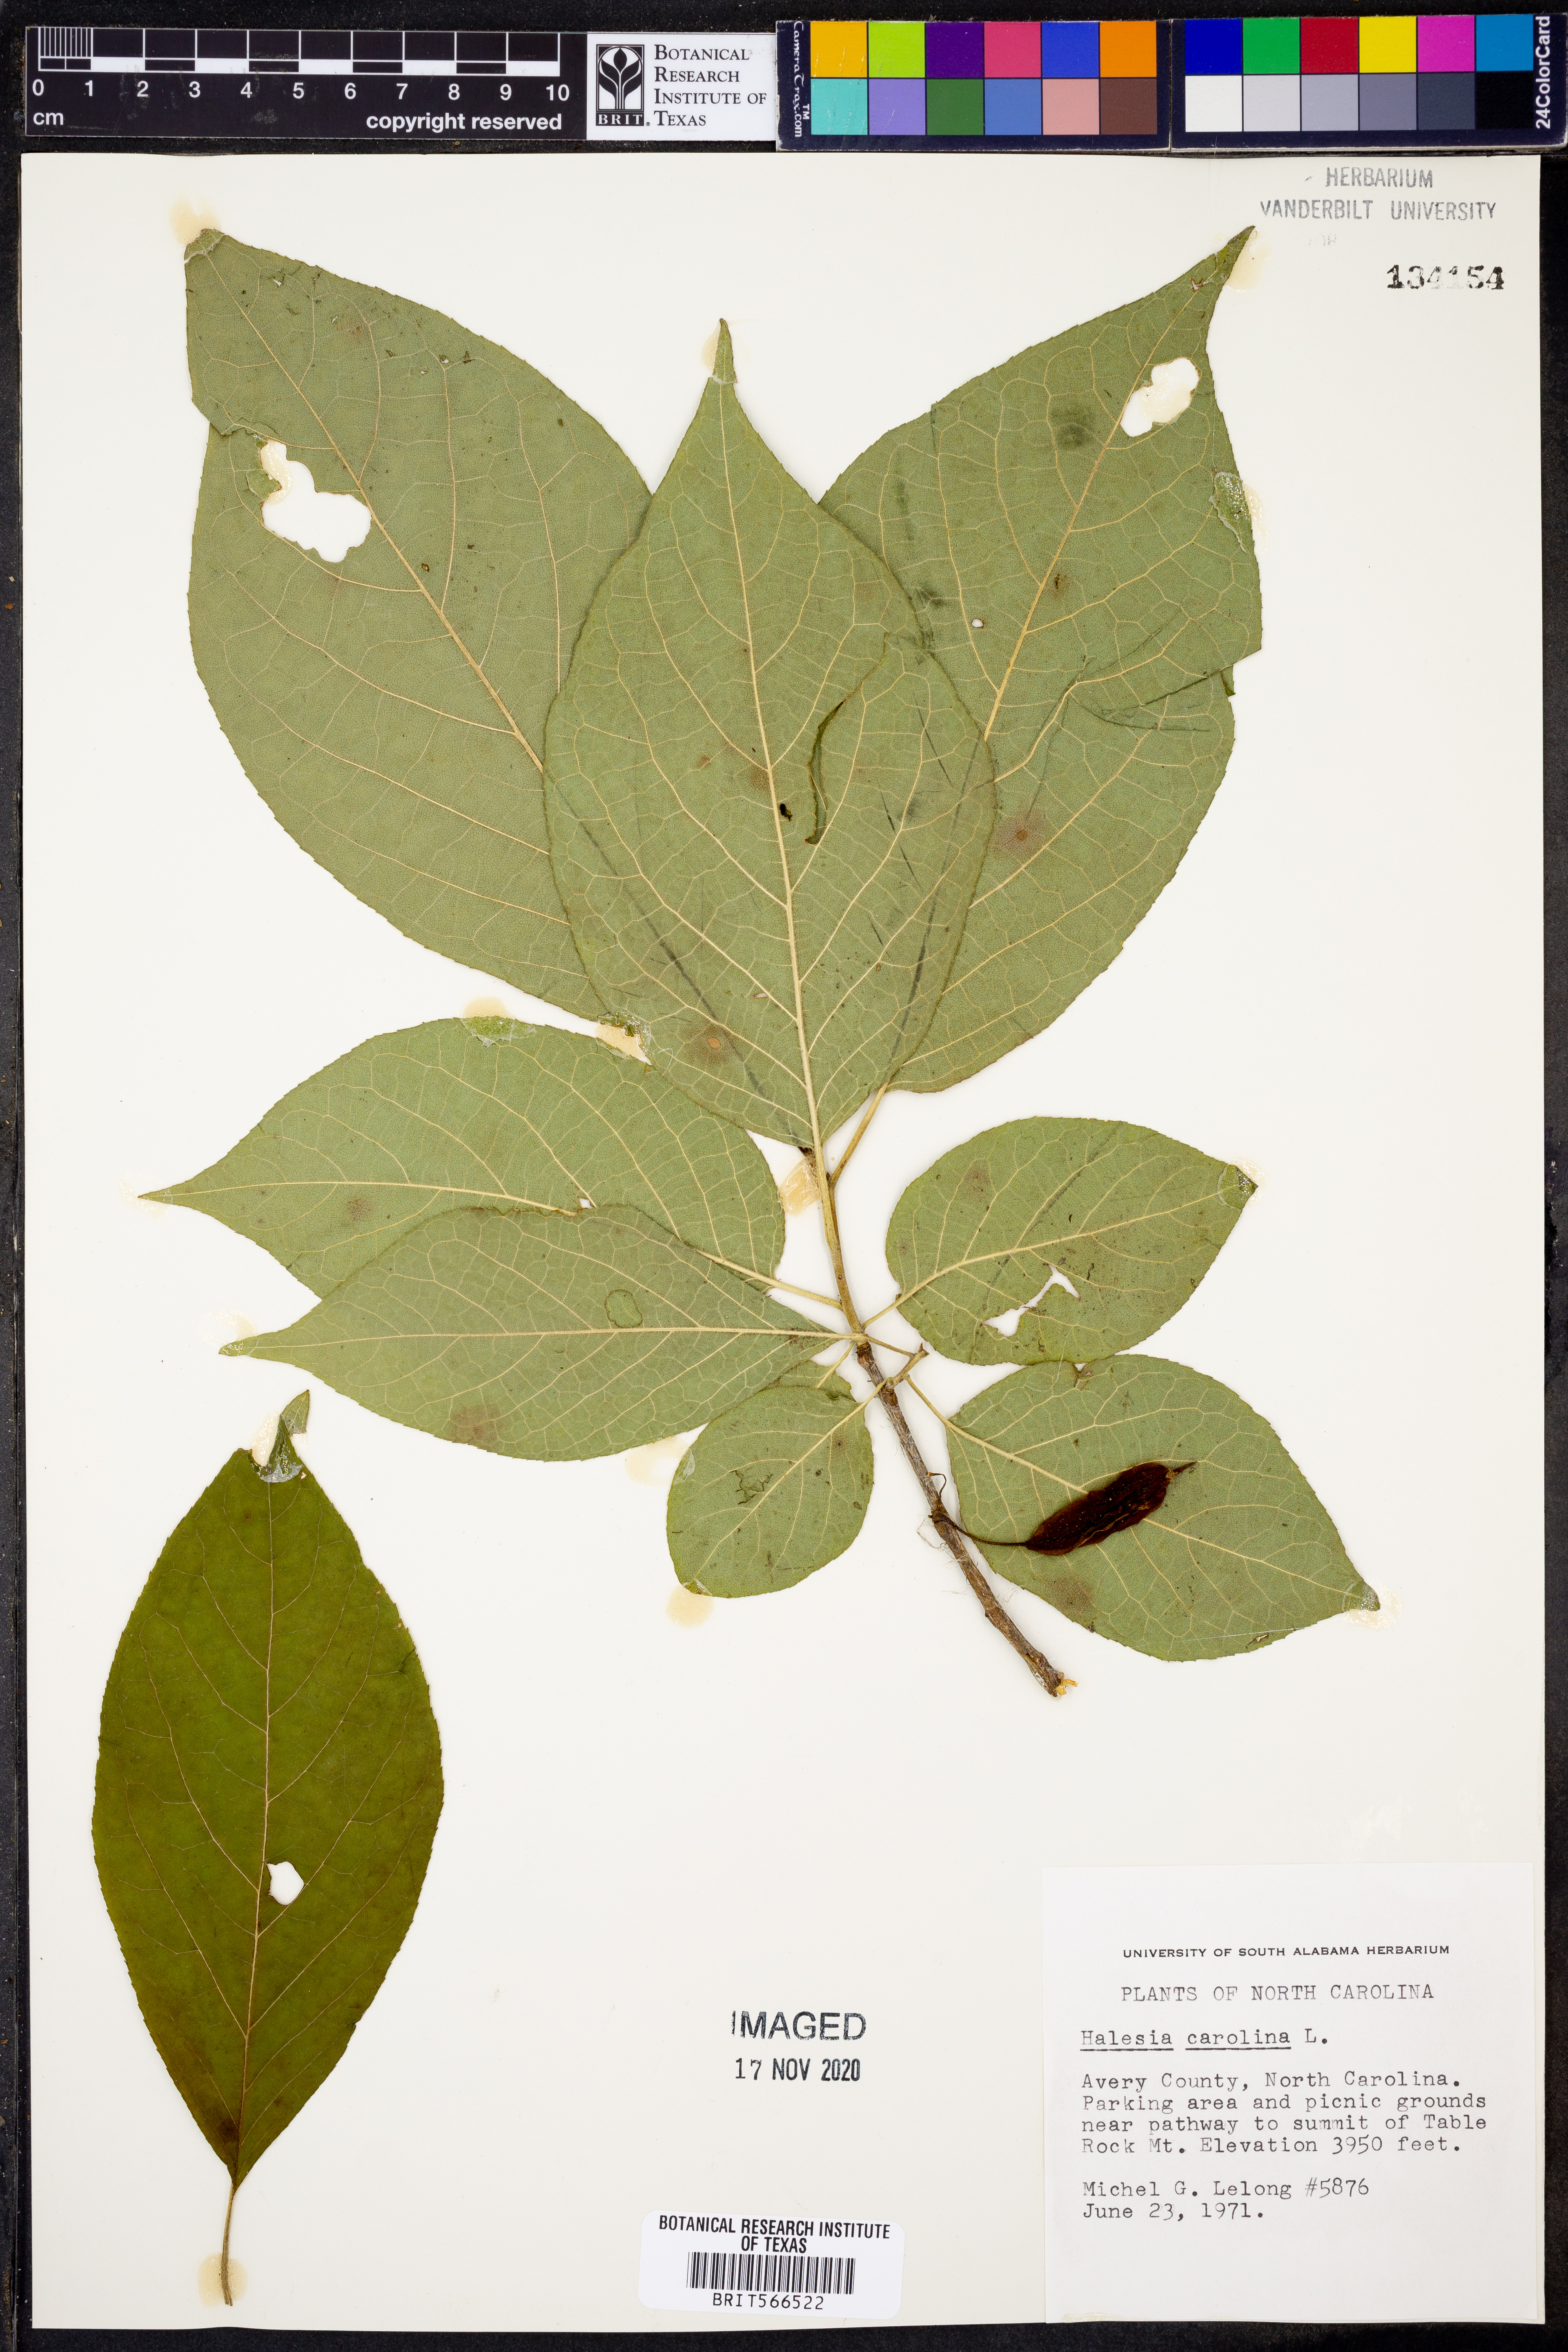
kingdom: Plantae
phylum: Tracheophyta
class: Magnoliopsida
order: Ericales
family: Styracaceae
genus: Halesia
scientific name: Halesia carolina
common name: Carolina silverbell
